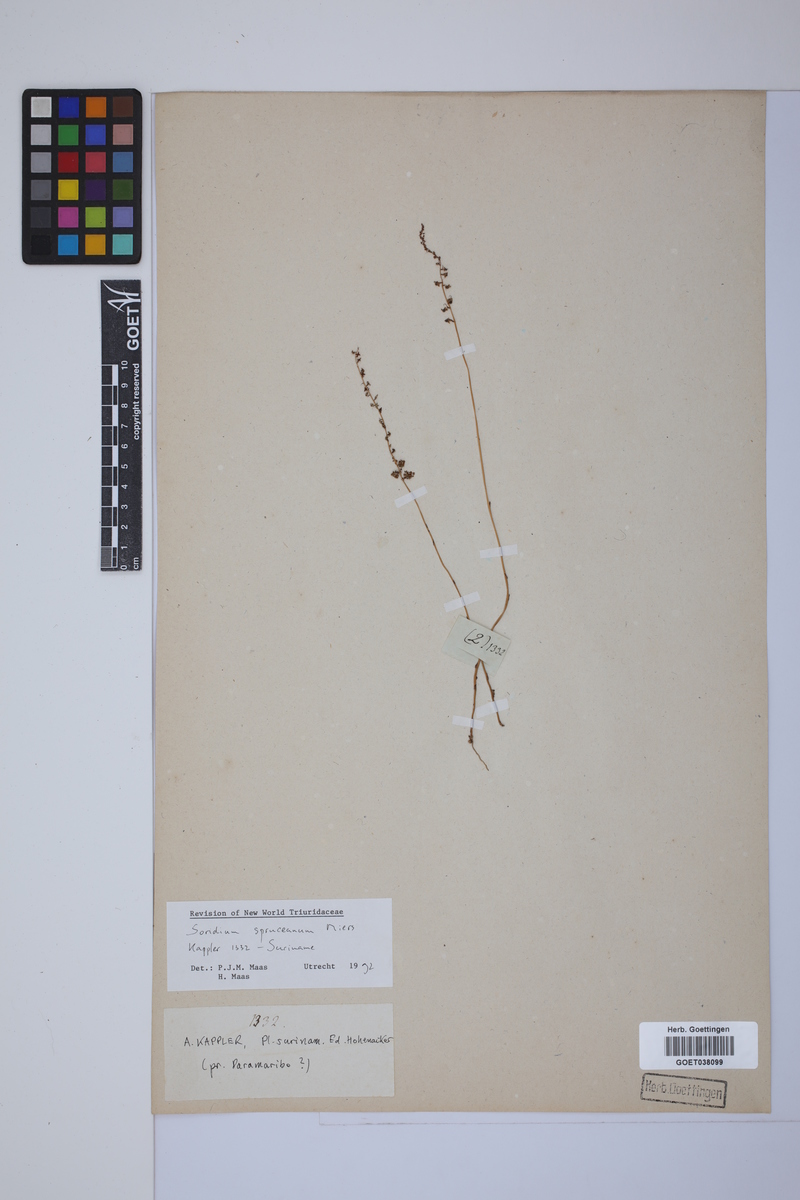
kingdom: Plantae
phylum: Tracheophyta
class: Liliopsida
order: Pandanales
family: Triuridaceae
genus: Soridium
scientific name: Soridium spruceanum
